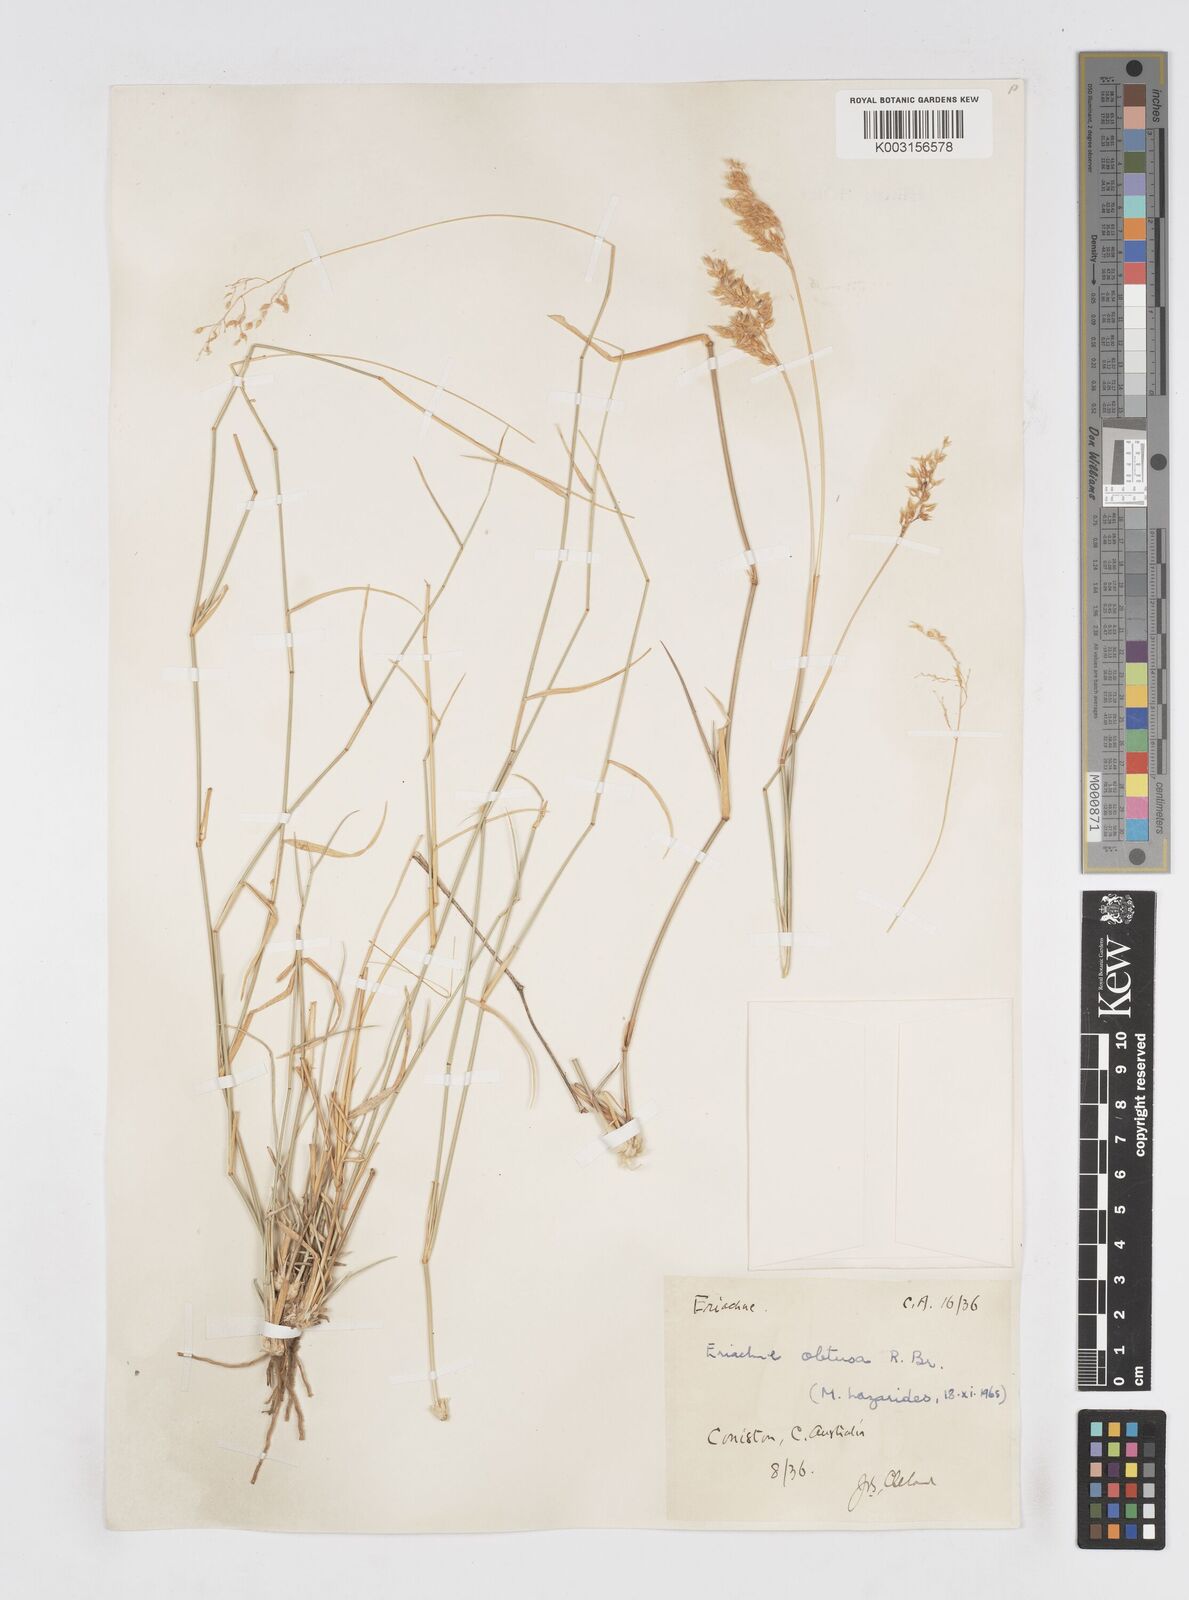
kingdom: Plantae
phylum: Tracheophyta
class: Liliopsida
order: Poales
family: Poaceae
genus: Eriachne
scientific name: Eriachne obtusa
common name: Northern wanderrie grass
